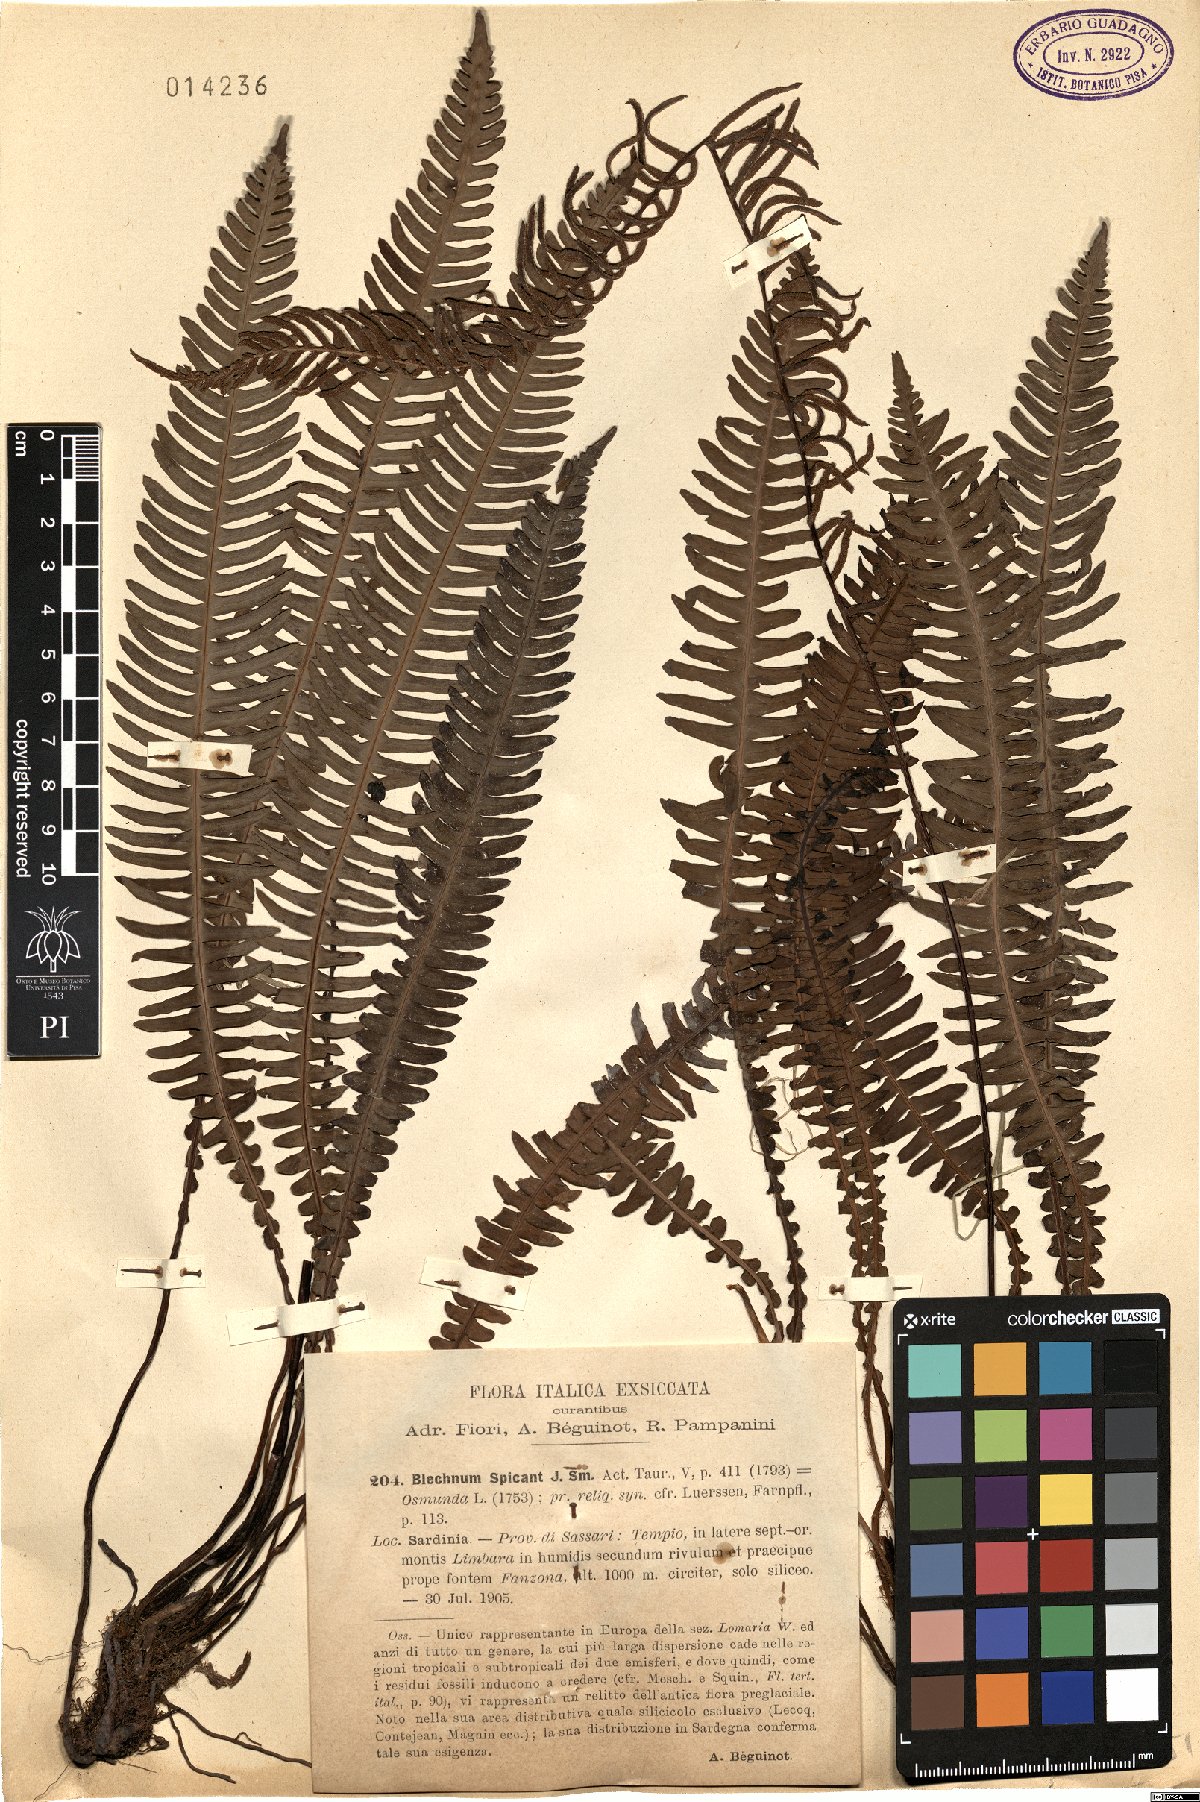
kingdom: Plantae
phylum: Tracheophyta
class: Polypodiopsida
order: Polypodiales
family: Blechnaceae
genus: Struthiopteris
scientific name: Struthiopteris spicant
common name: Deer fern
